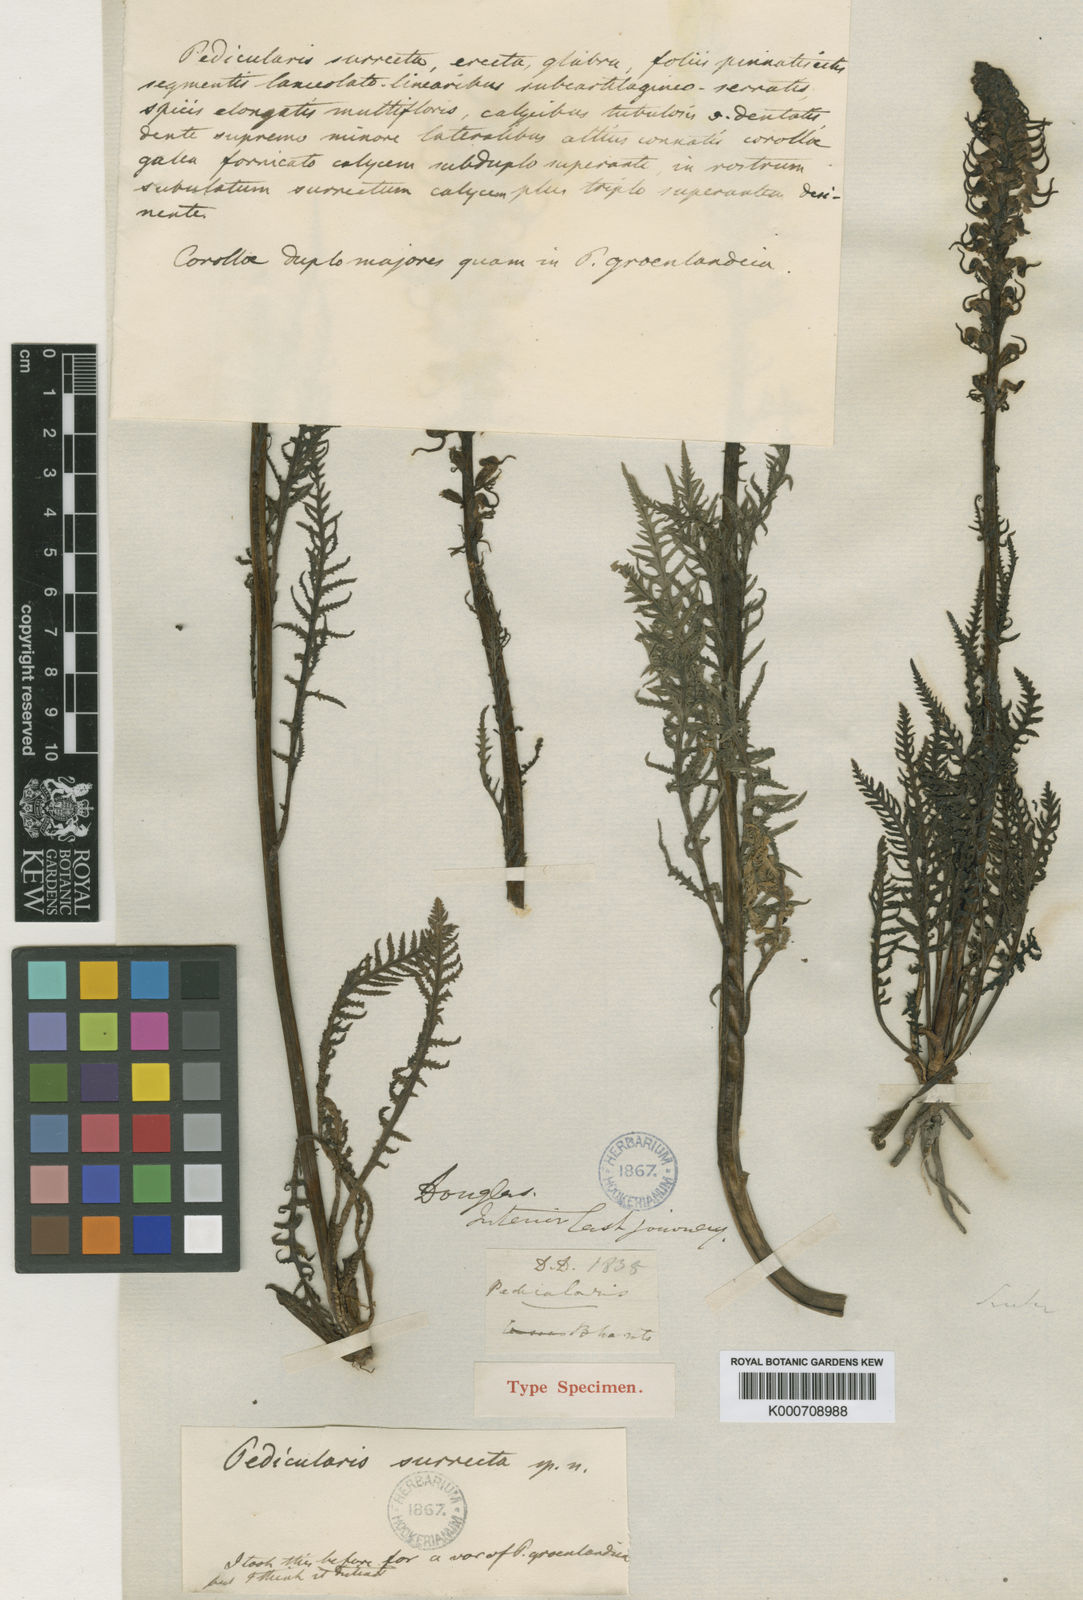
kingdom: Plantae
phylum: Tracheophyta
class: Magnoliopsida
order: Lamiales
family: Orobanchaceae
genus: Pedicularis
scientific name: Pedicularis groenlandica
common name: Elephant's-head
